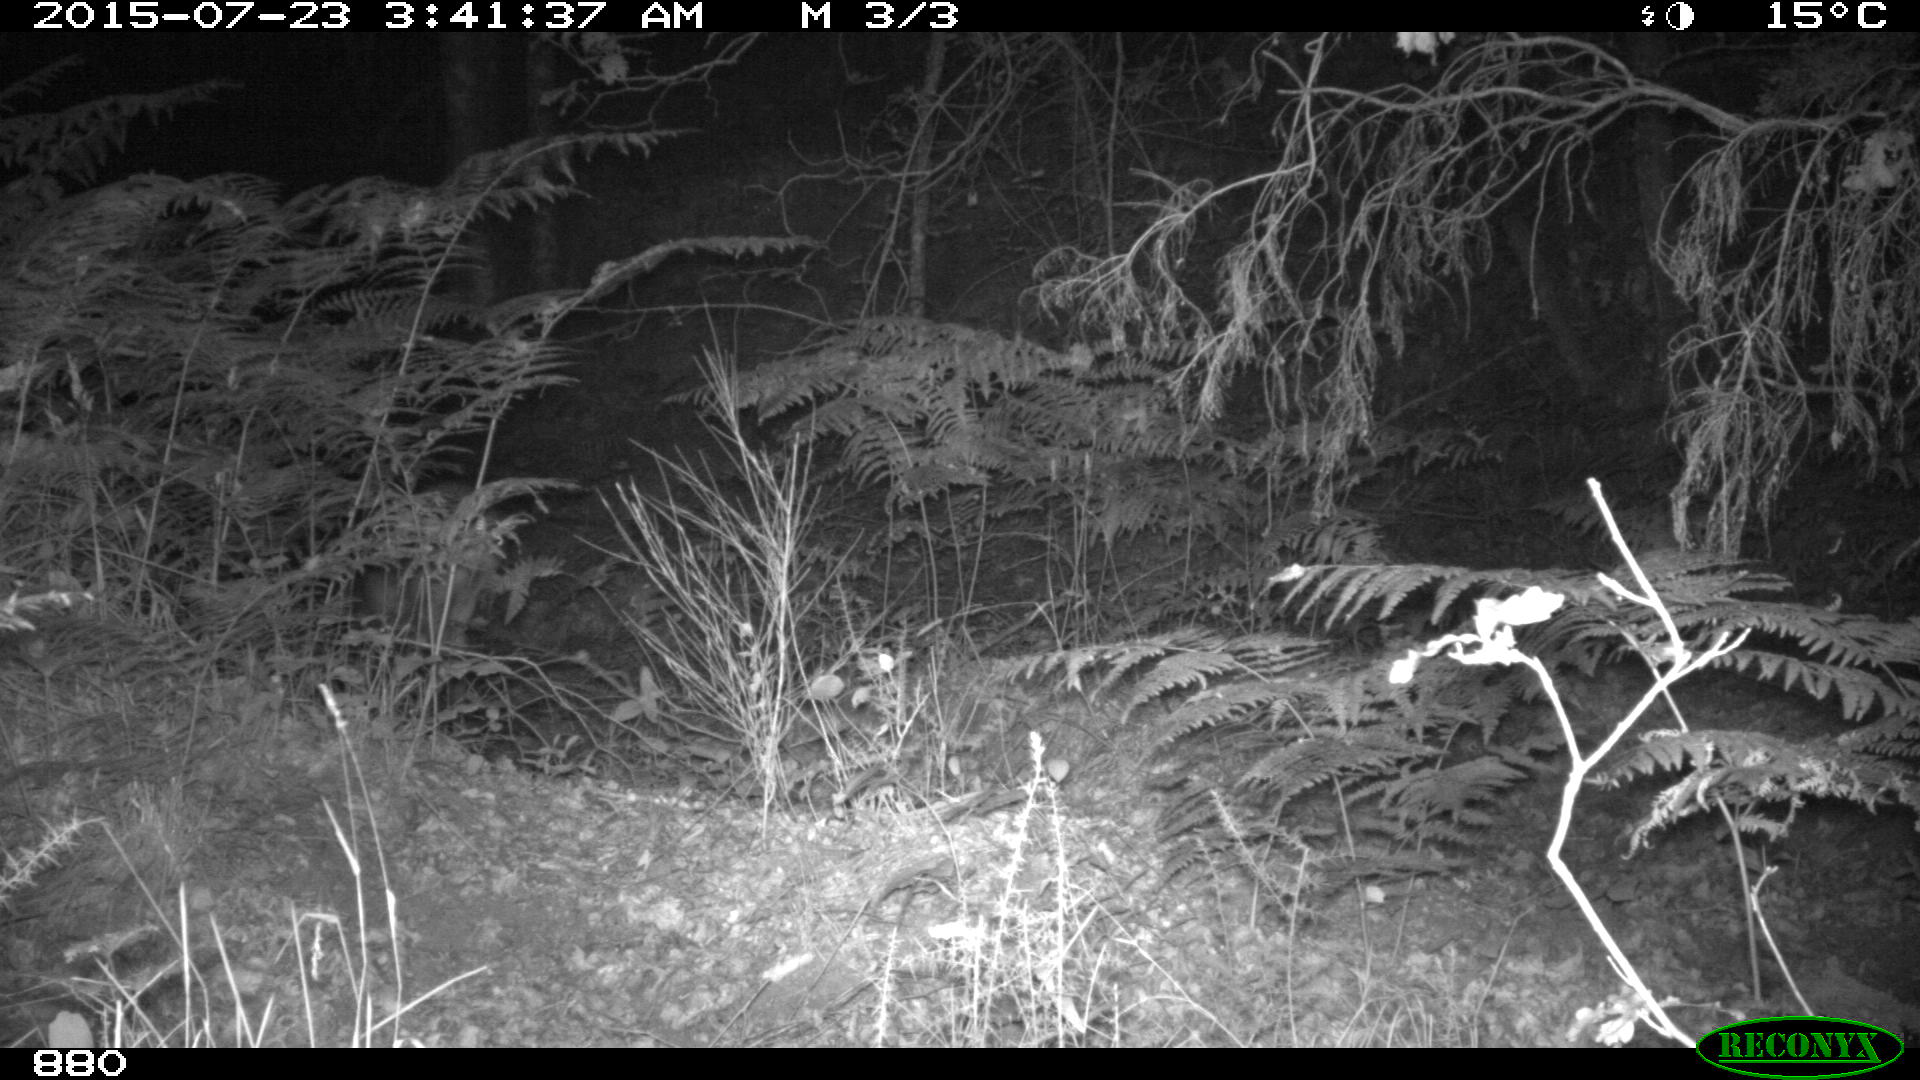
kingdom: Animalia
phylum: Chordata
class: Mammalia
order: Artiodactyla
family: Cervidae
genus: Capreolus
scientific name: Capreolus capreolus
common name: Western roe deer
